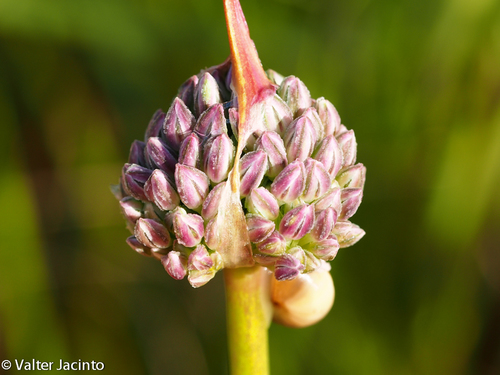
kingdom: Plantae
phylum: Tracheophyta
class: Liliopsida
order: Asparagales
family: Amaryllidaceae
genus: Allium
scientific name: Allium ampeloprasum
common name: Wild leek
